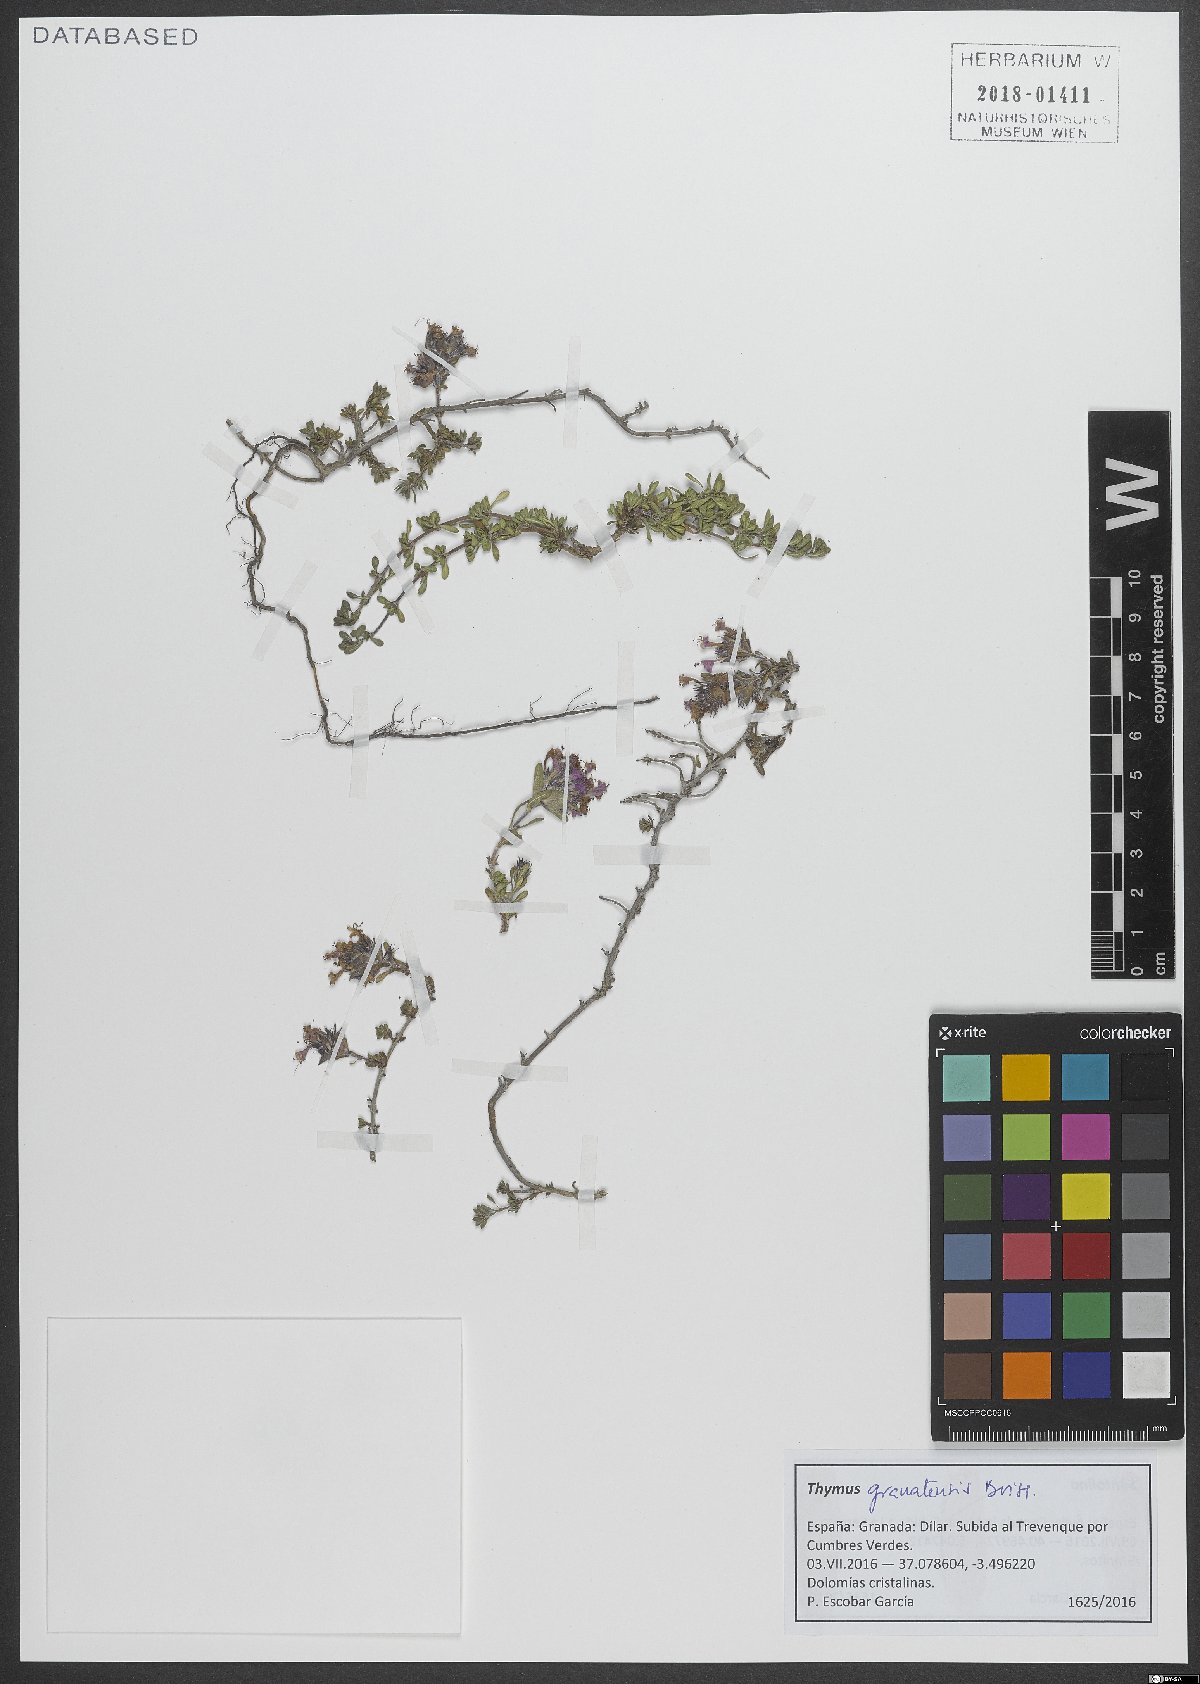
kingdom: Plantae
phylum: Tracheophyta
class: Magnoliopsida
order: Lamiales
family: Lamiaceae
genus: Thymus
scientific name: Thymus granatensis
